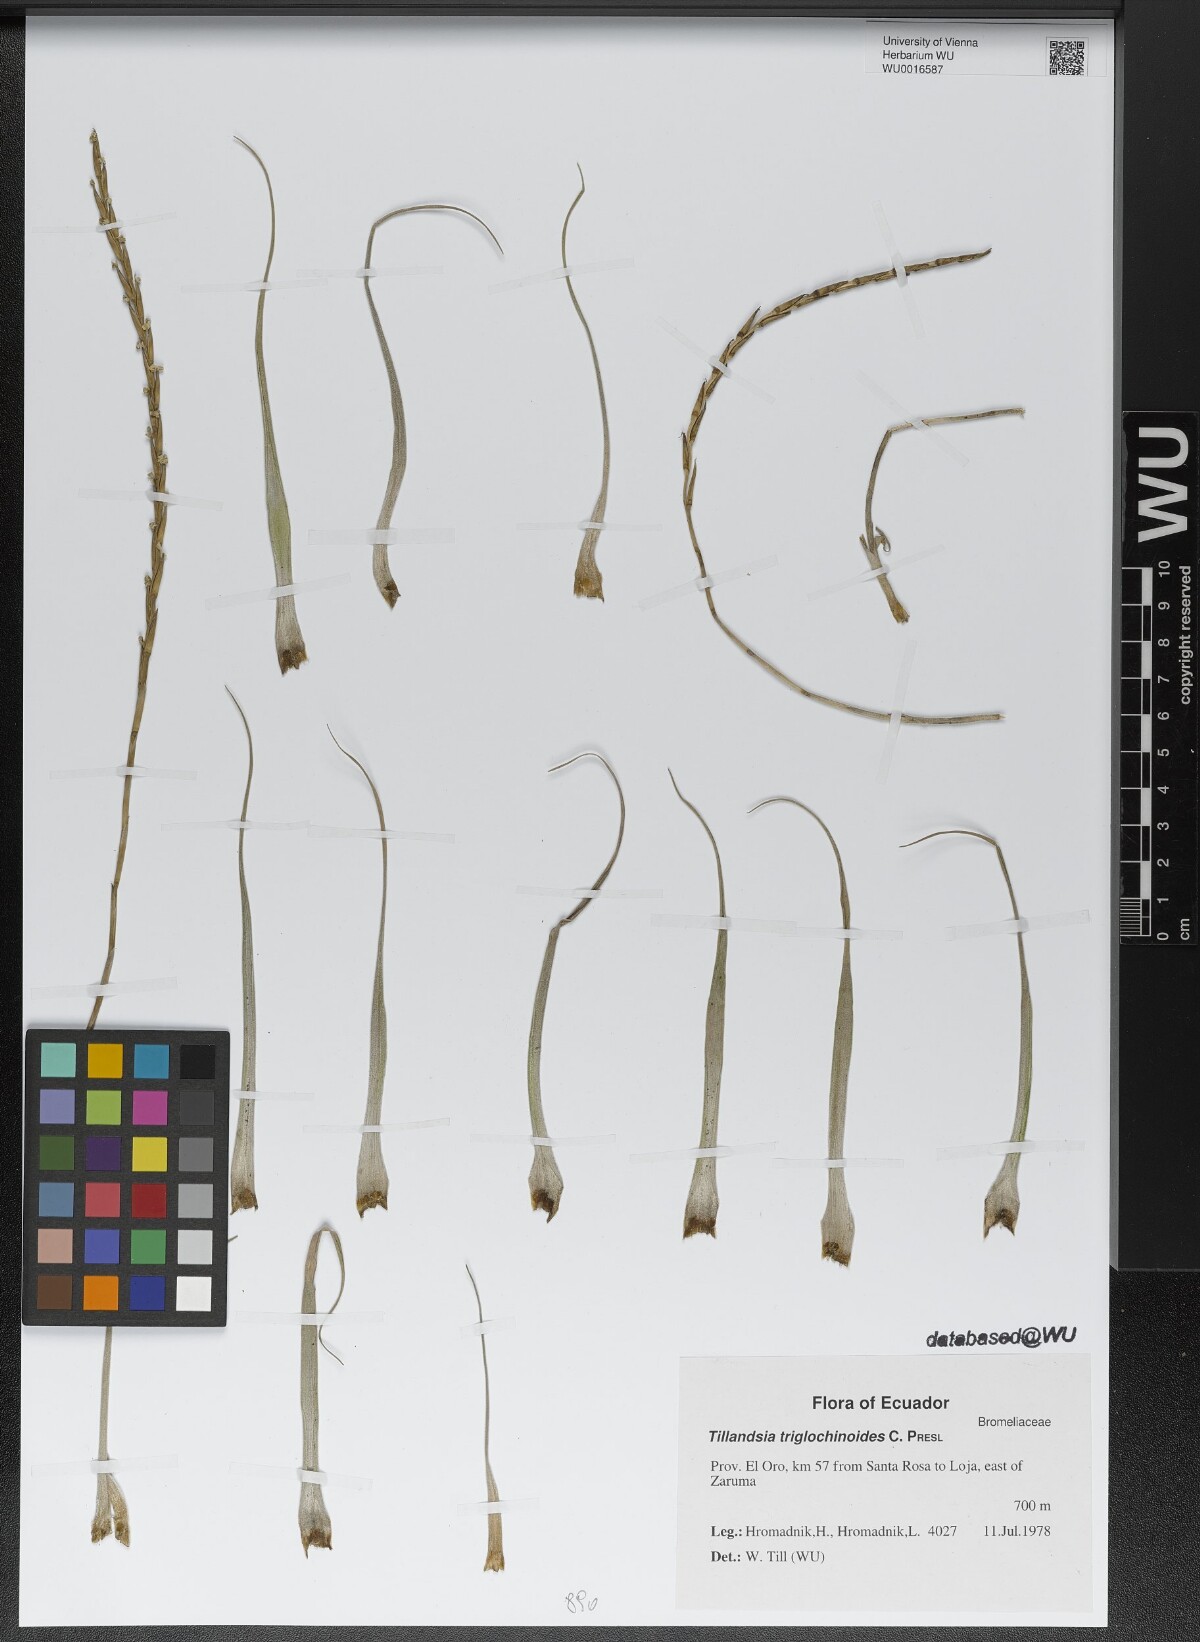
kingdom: Plantae
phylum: Tracheophyta
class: Liliopsida
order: Poales
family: Bromeliaceae
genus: Lemeltonia
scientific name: Lemeltonia triglochinoides
